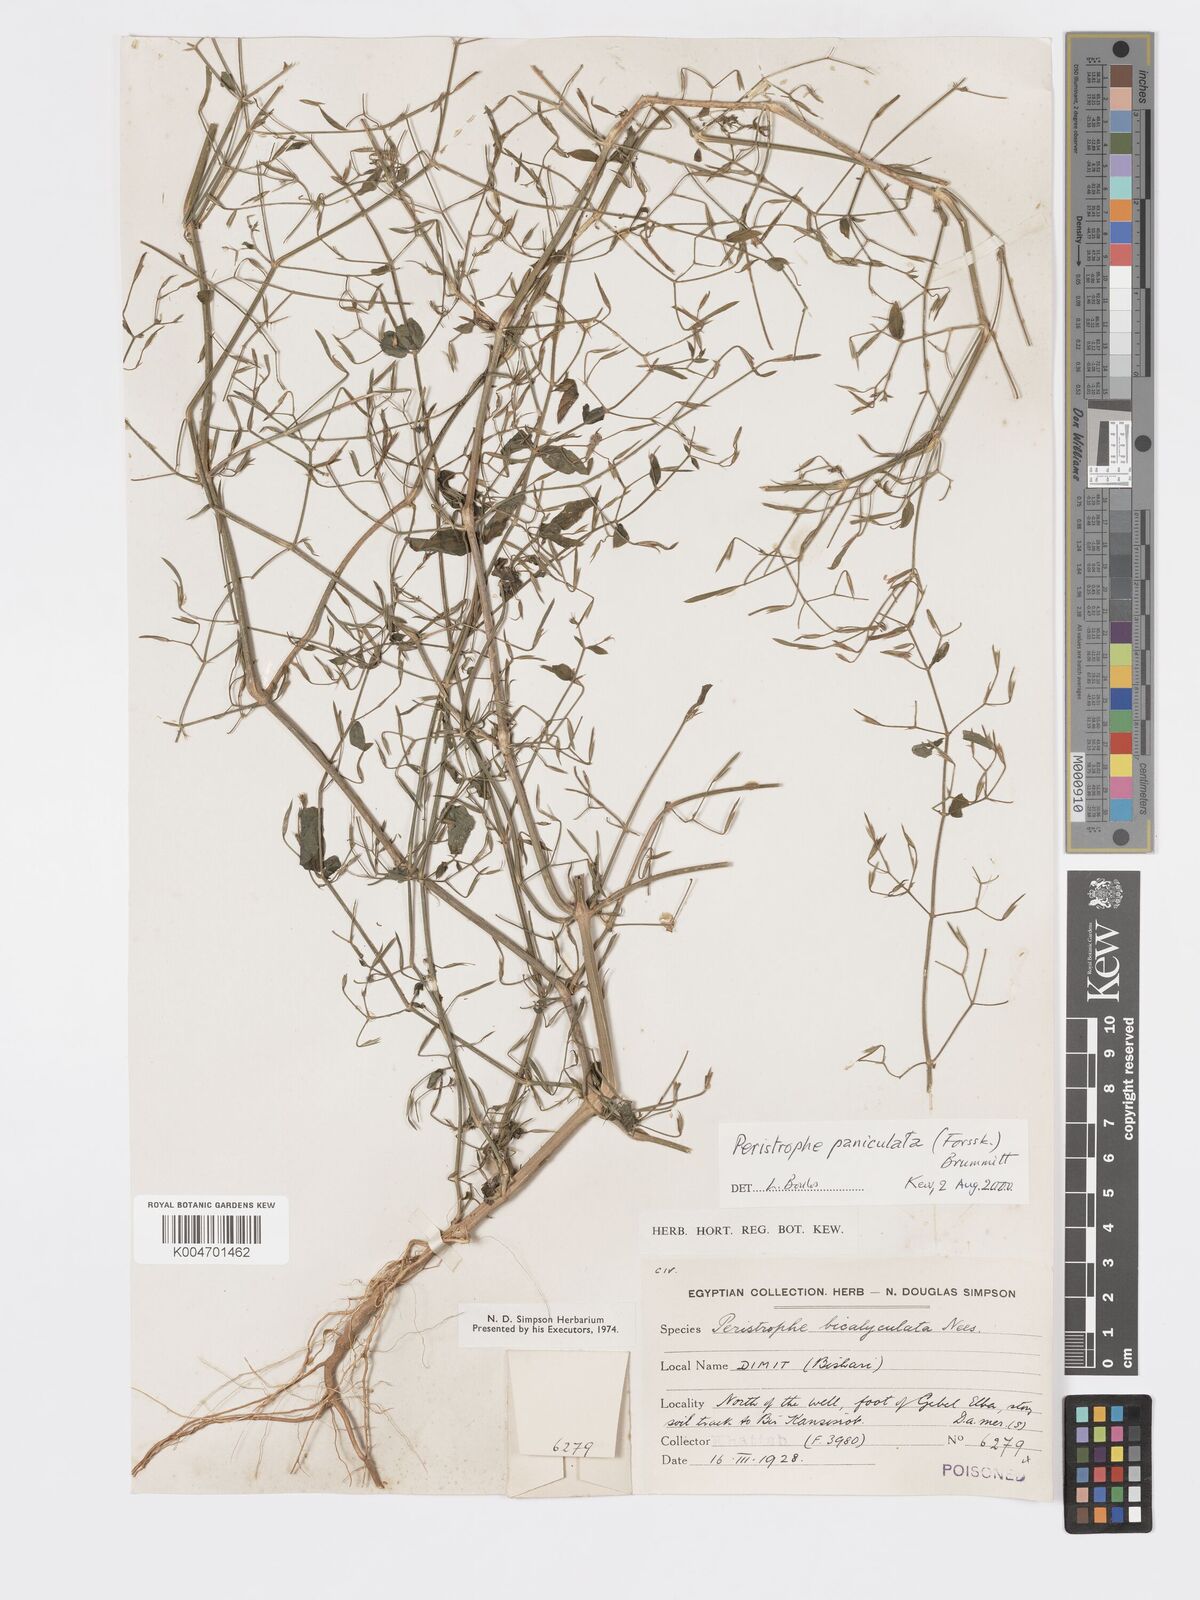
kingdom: Plantae
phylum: Tracheophyta
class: Magnoliopsida
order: Lamiales
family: Acanthaceae
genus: Dicliptera
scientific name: Dicliptera paniculata
